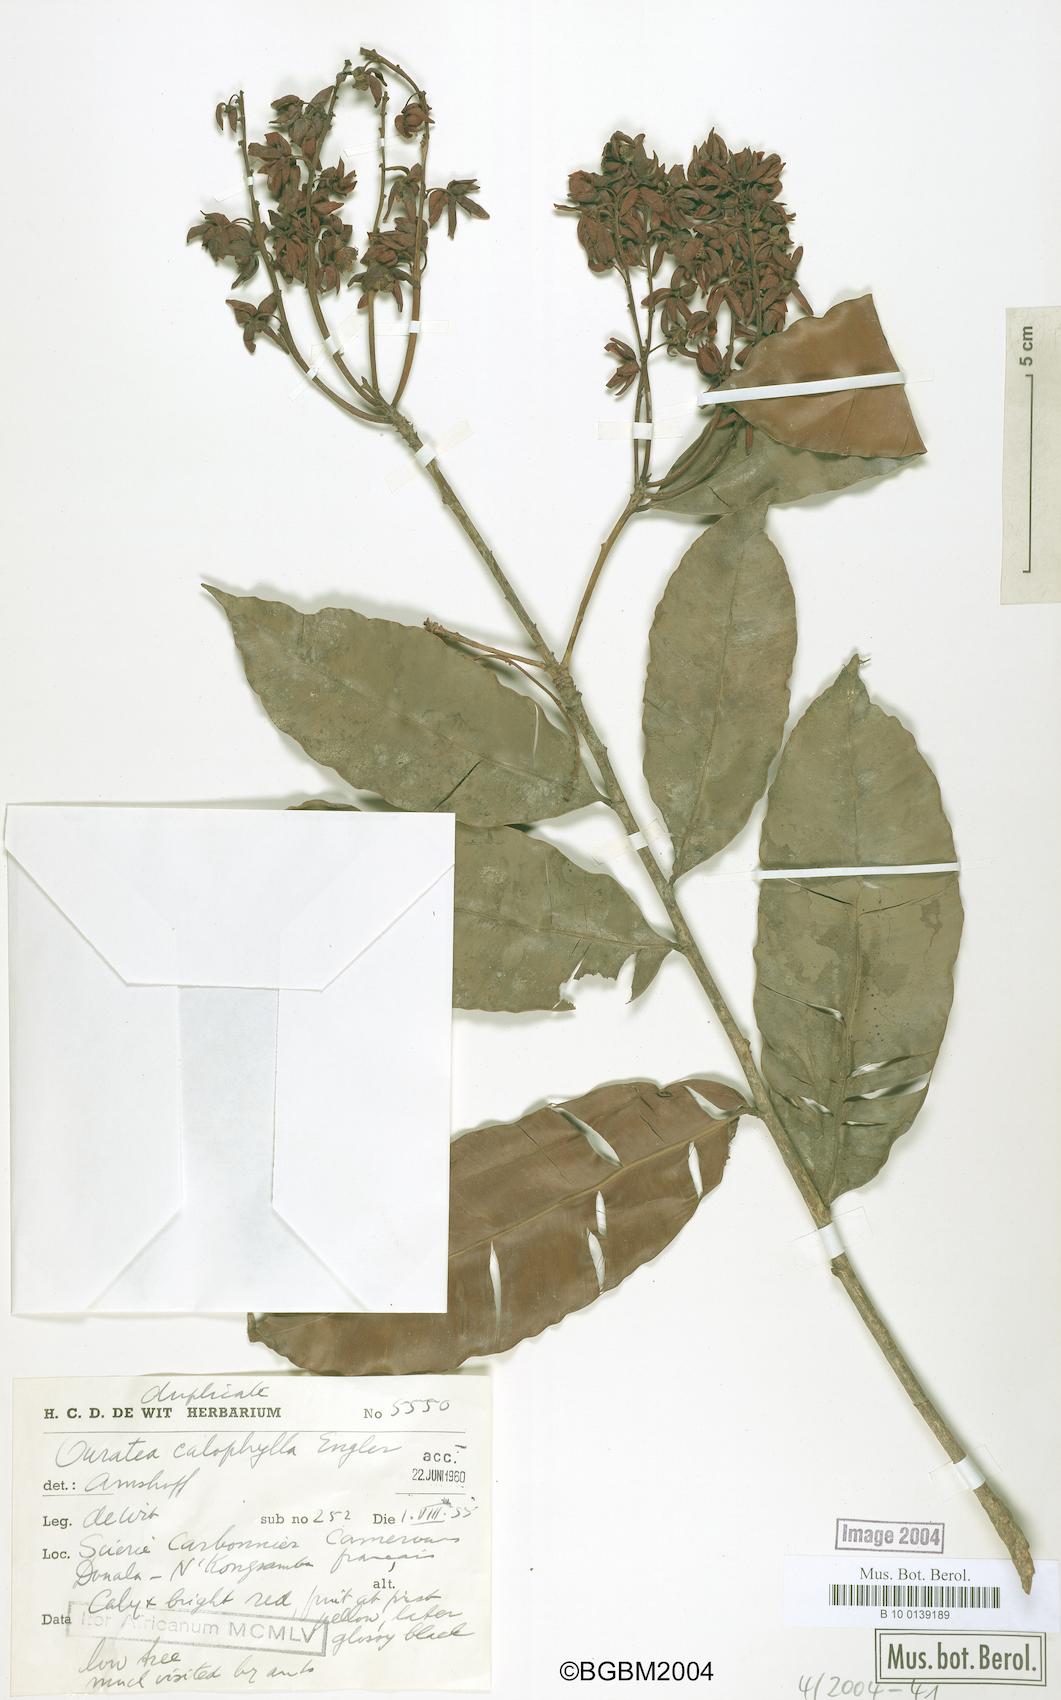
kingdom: Plantae
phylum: Tracheophyta
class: Magnoliopsida
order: Malpighiales
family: Ochnaceae
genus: Rhabdophyllum
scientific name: Rhabdophyllum calophyllum
